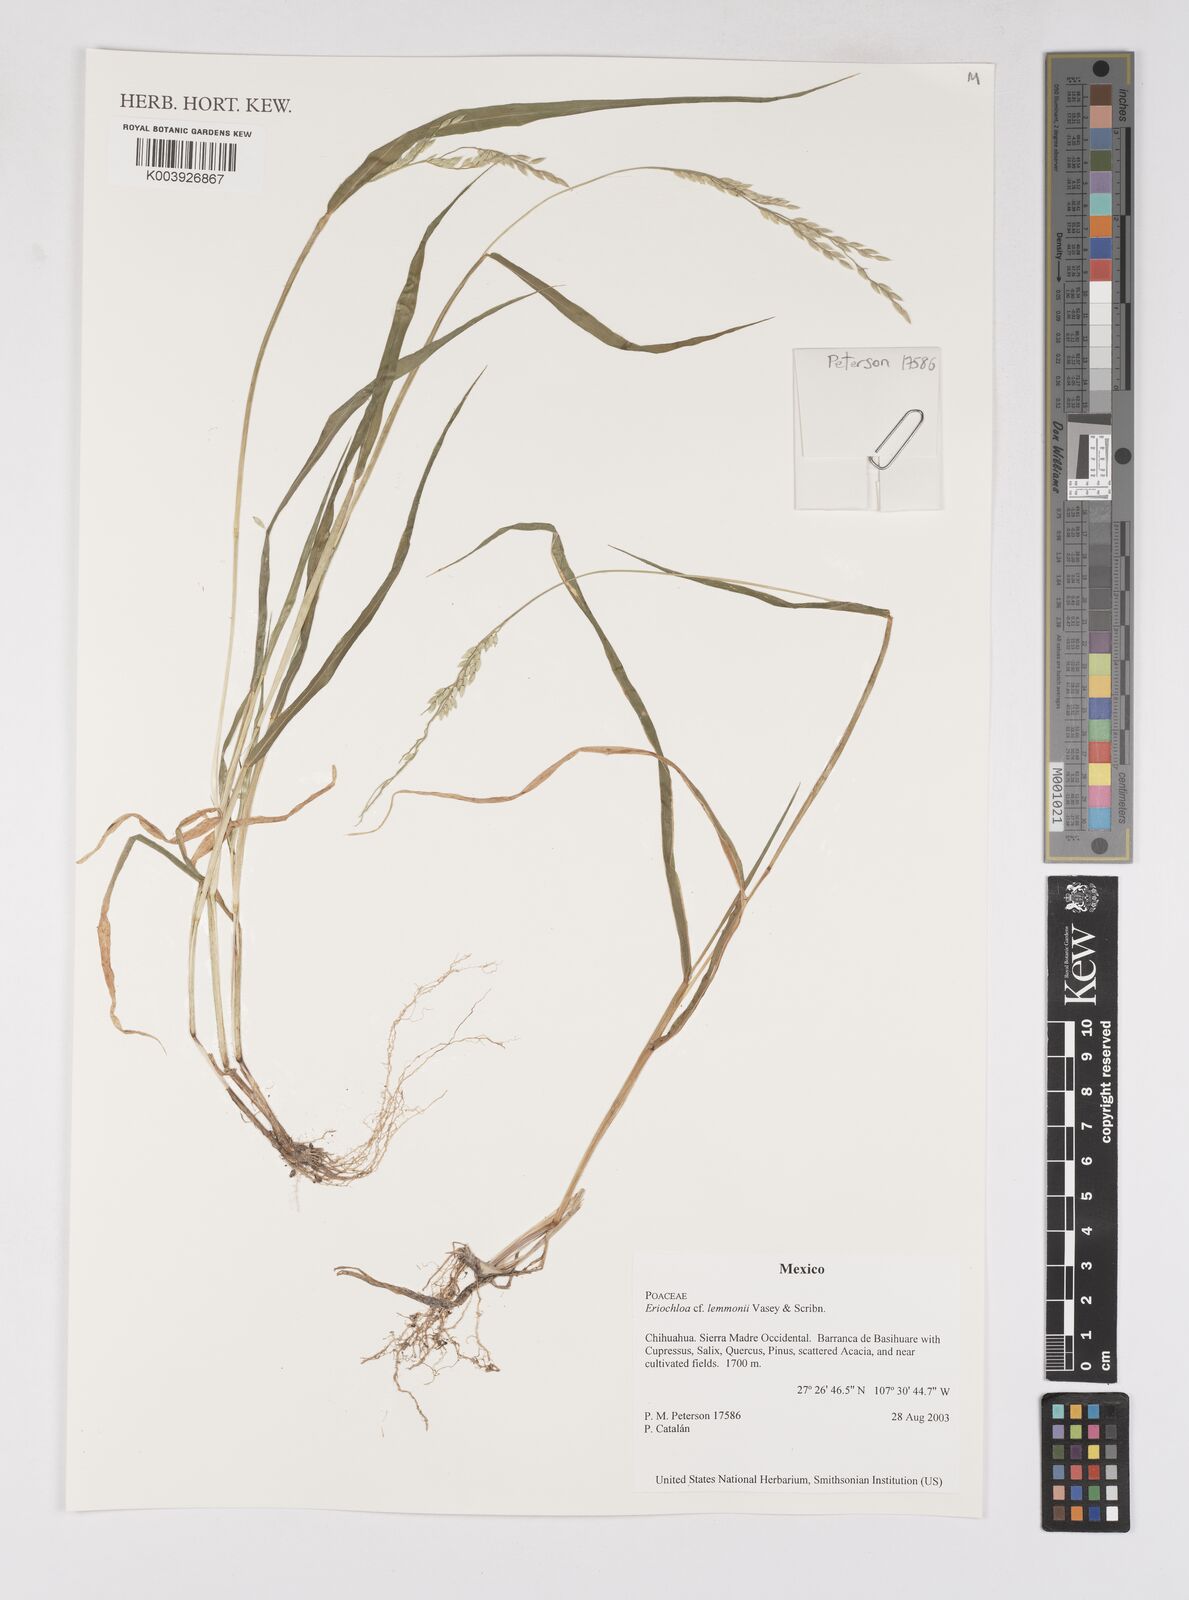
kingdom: Plantae
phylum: Tracheophyta
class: Liliopsida
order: Poales
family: Poaceae
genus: Eriochloa
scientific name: Eriochloa lemmonii
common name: Canyon cup grass
